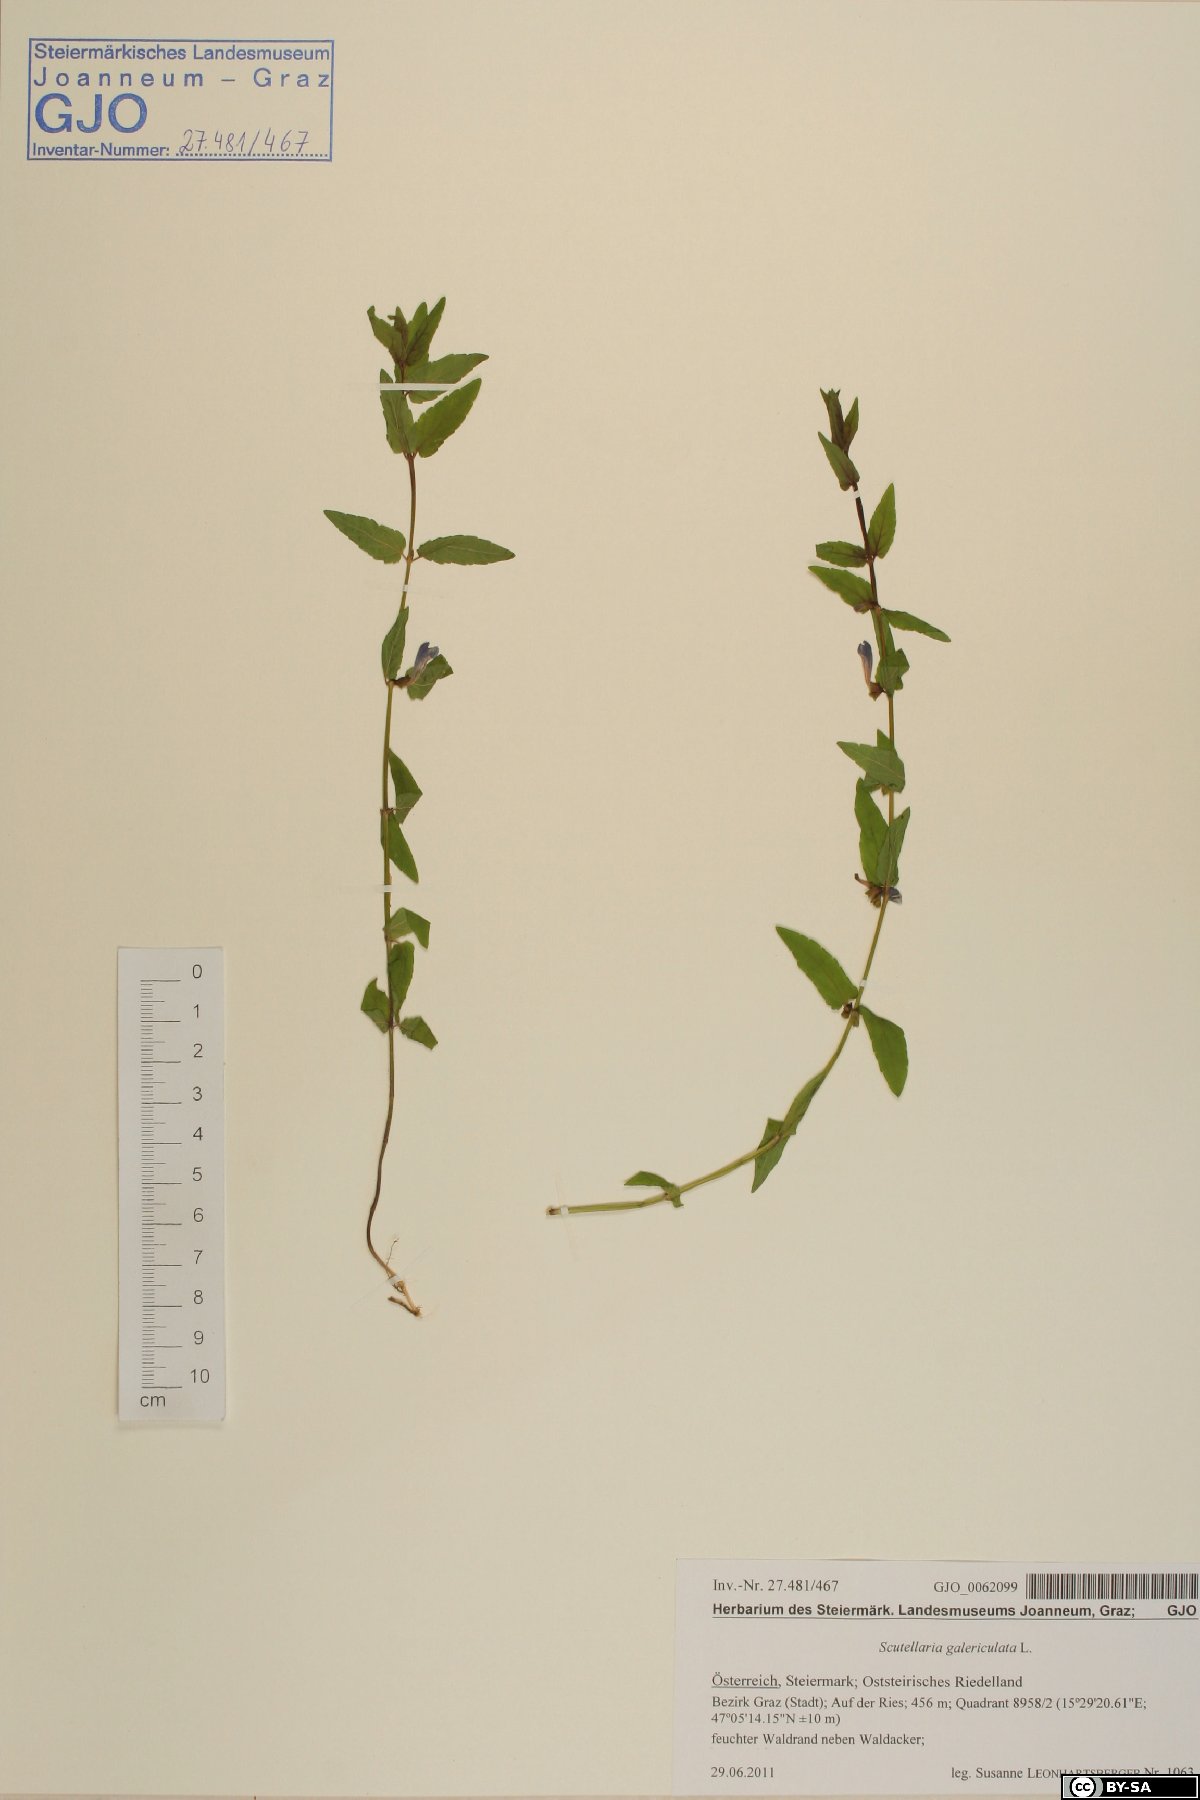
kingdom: Plantae
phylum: Tracheophyta
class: Magnoliopsida
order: Lamiales
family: Lamiaceae
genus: Scutellaria
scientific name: Scutellaria galericulata
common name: Skullcap
